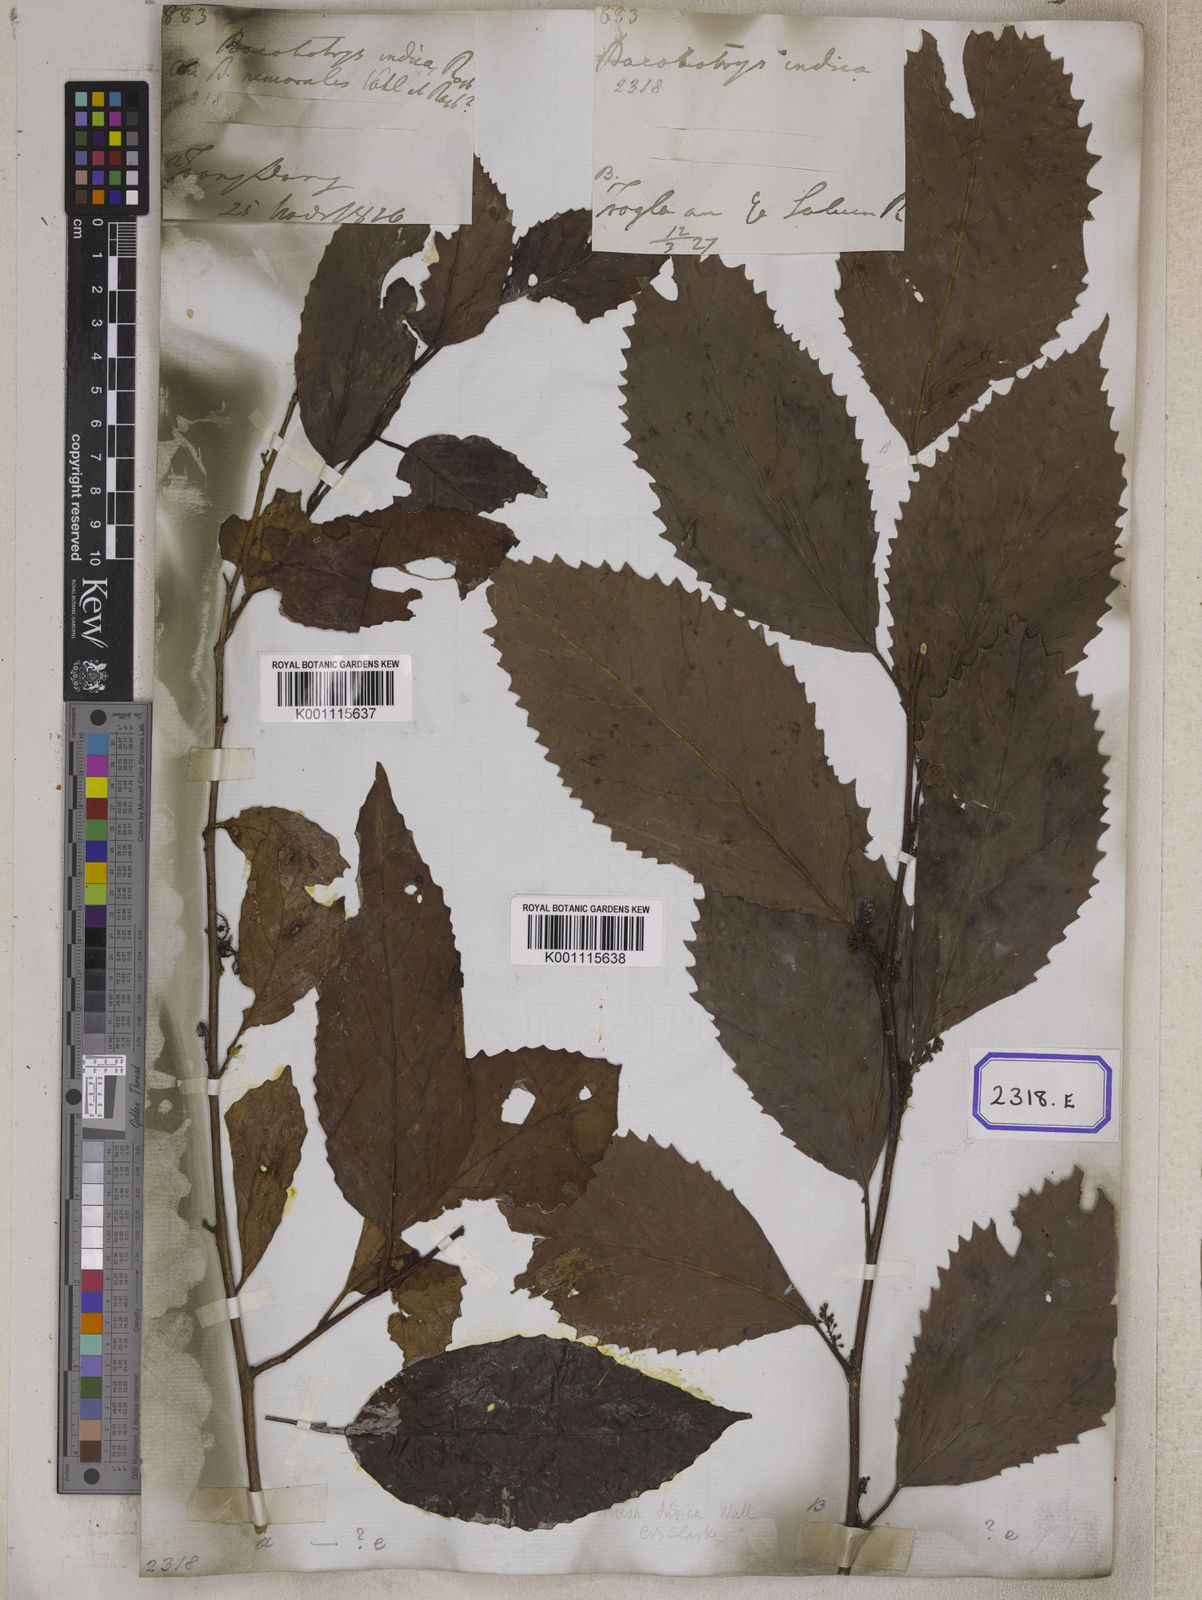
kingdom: Plantae
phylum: Tracheophyta
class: Magnoliopsida
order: Ericales
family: Primulaceae
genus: Maesa
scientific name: Maesa indica
